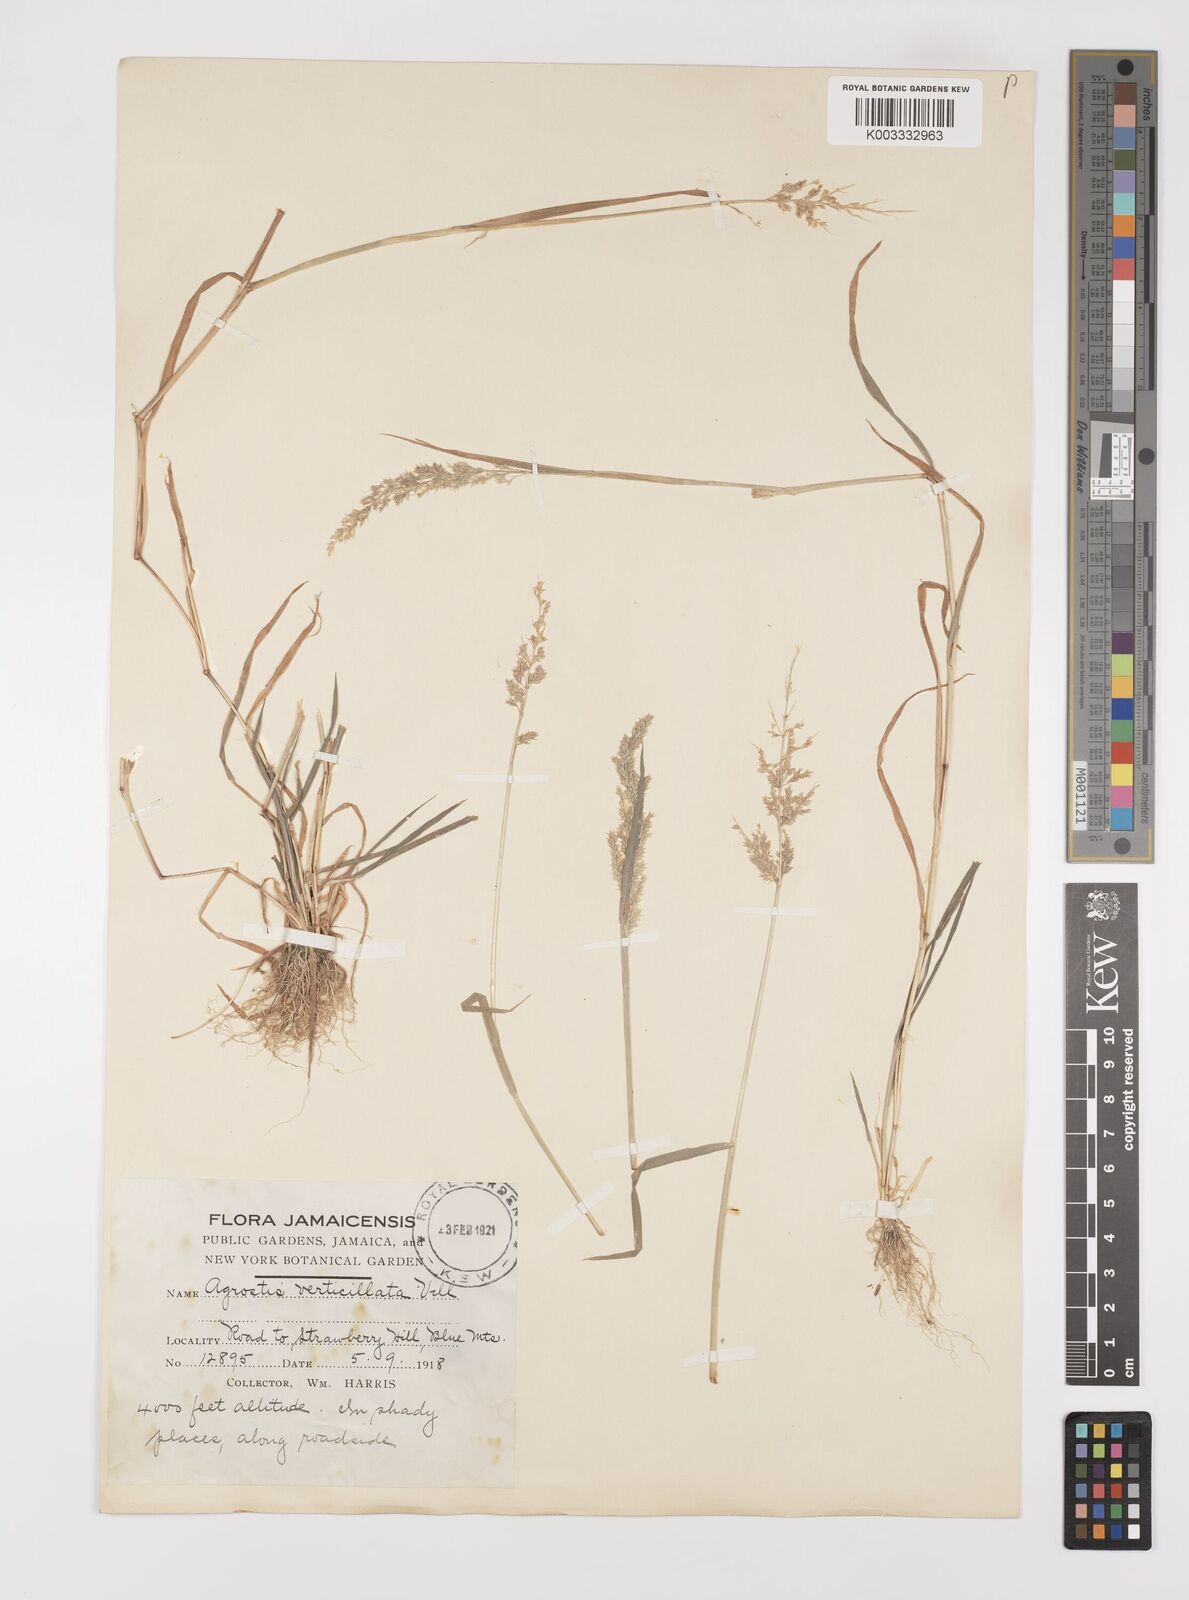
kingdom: Plantae
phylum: Tracheophyta
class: Liliopsida
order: Poales
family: Poaceae
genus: Polypogon
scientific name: Polypogon viridis
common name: Water bent
